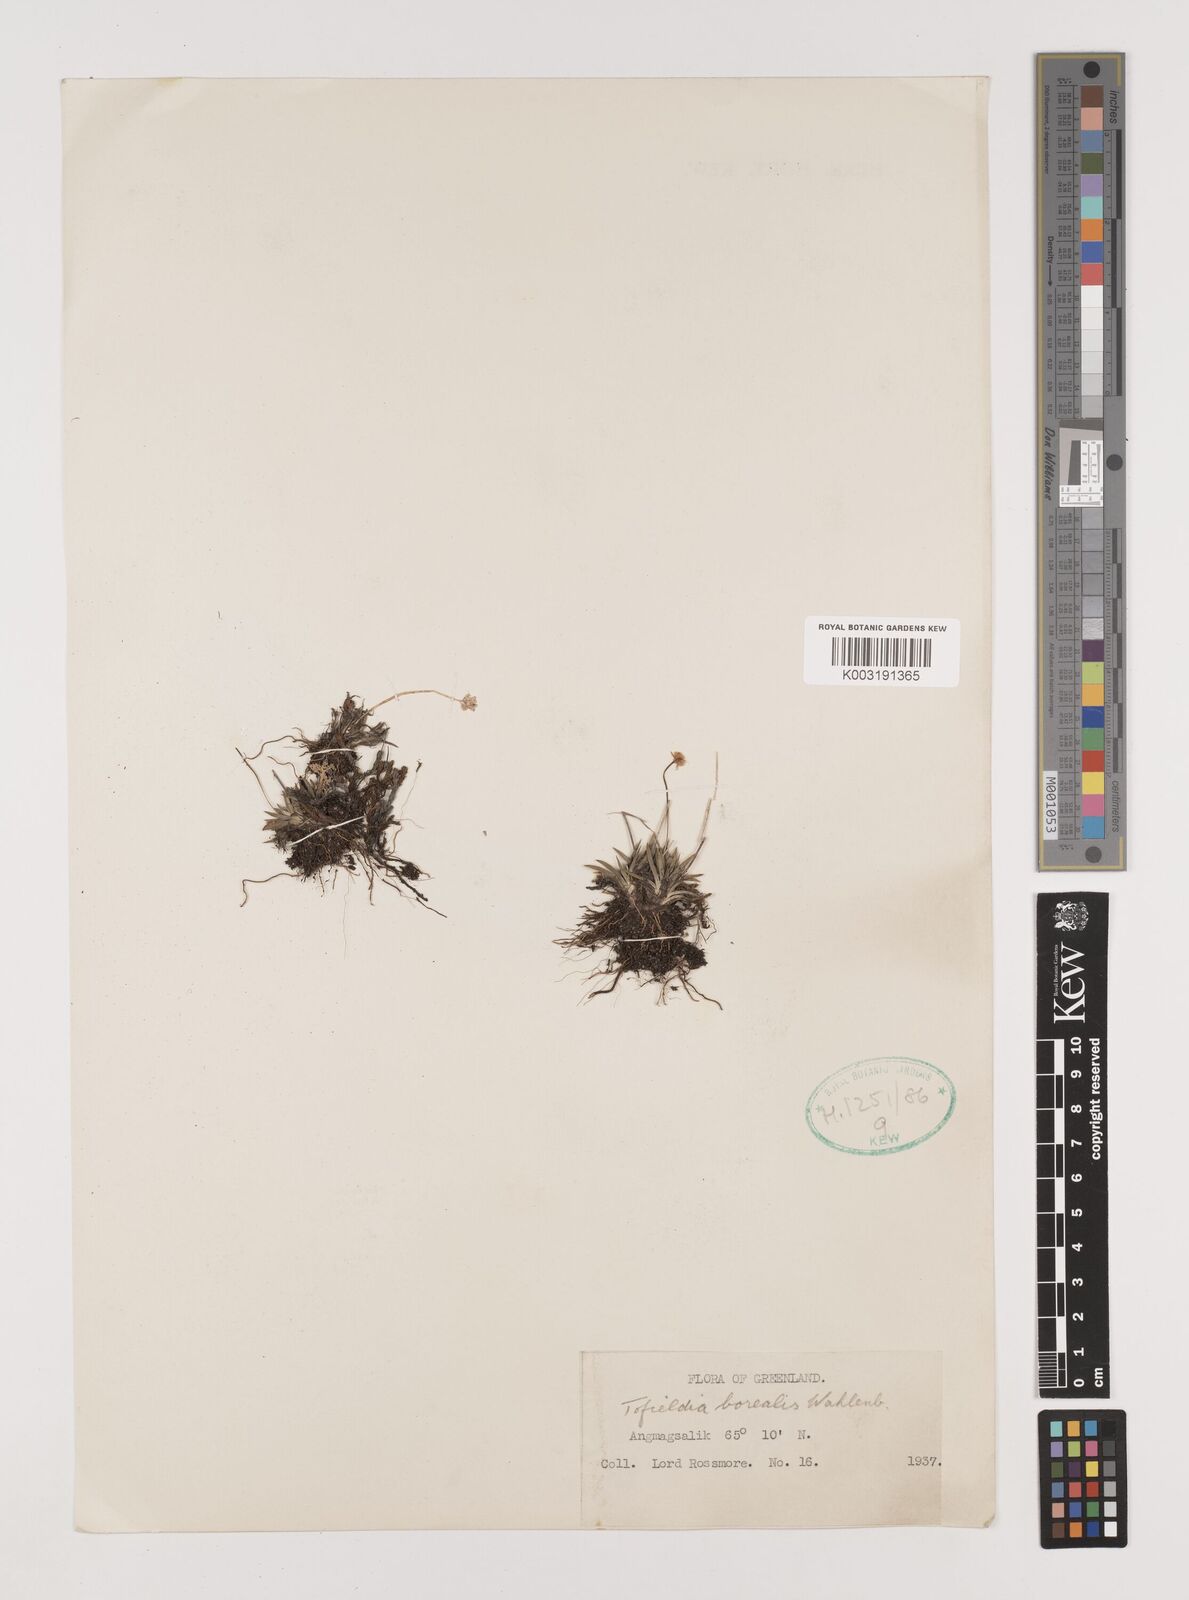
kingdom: Plantae
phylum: Tracheophyta
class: Liliopsida
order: Alismatales
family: Tofieldiaceae
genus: Tofieldia
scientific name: Tofieldia pusilla
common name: Scottish false asphodel
